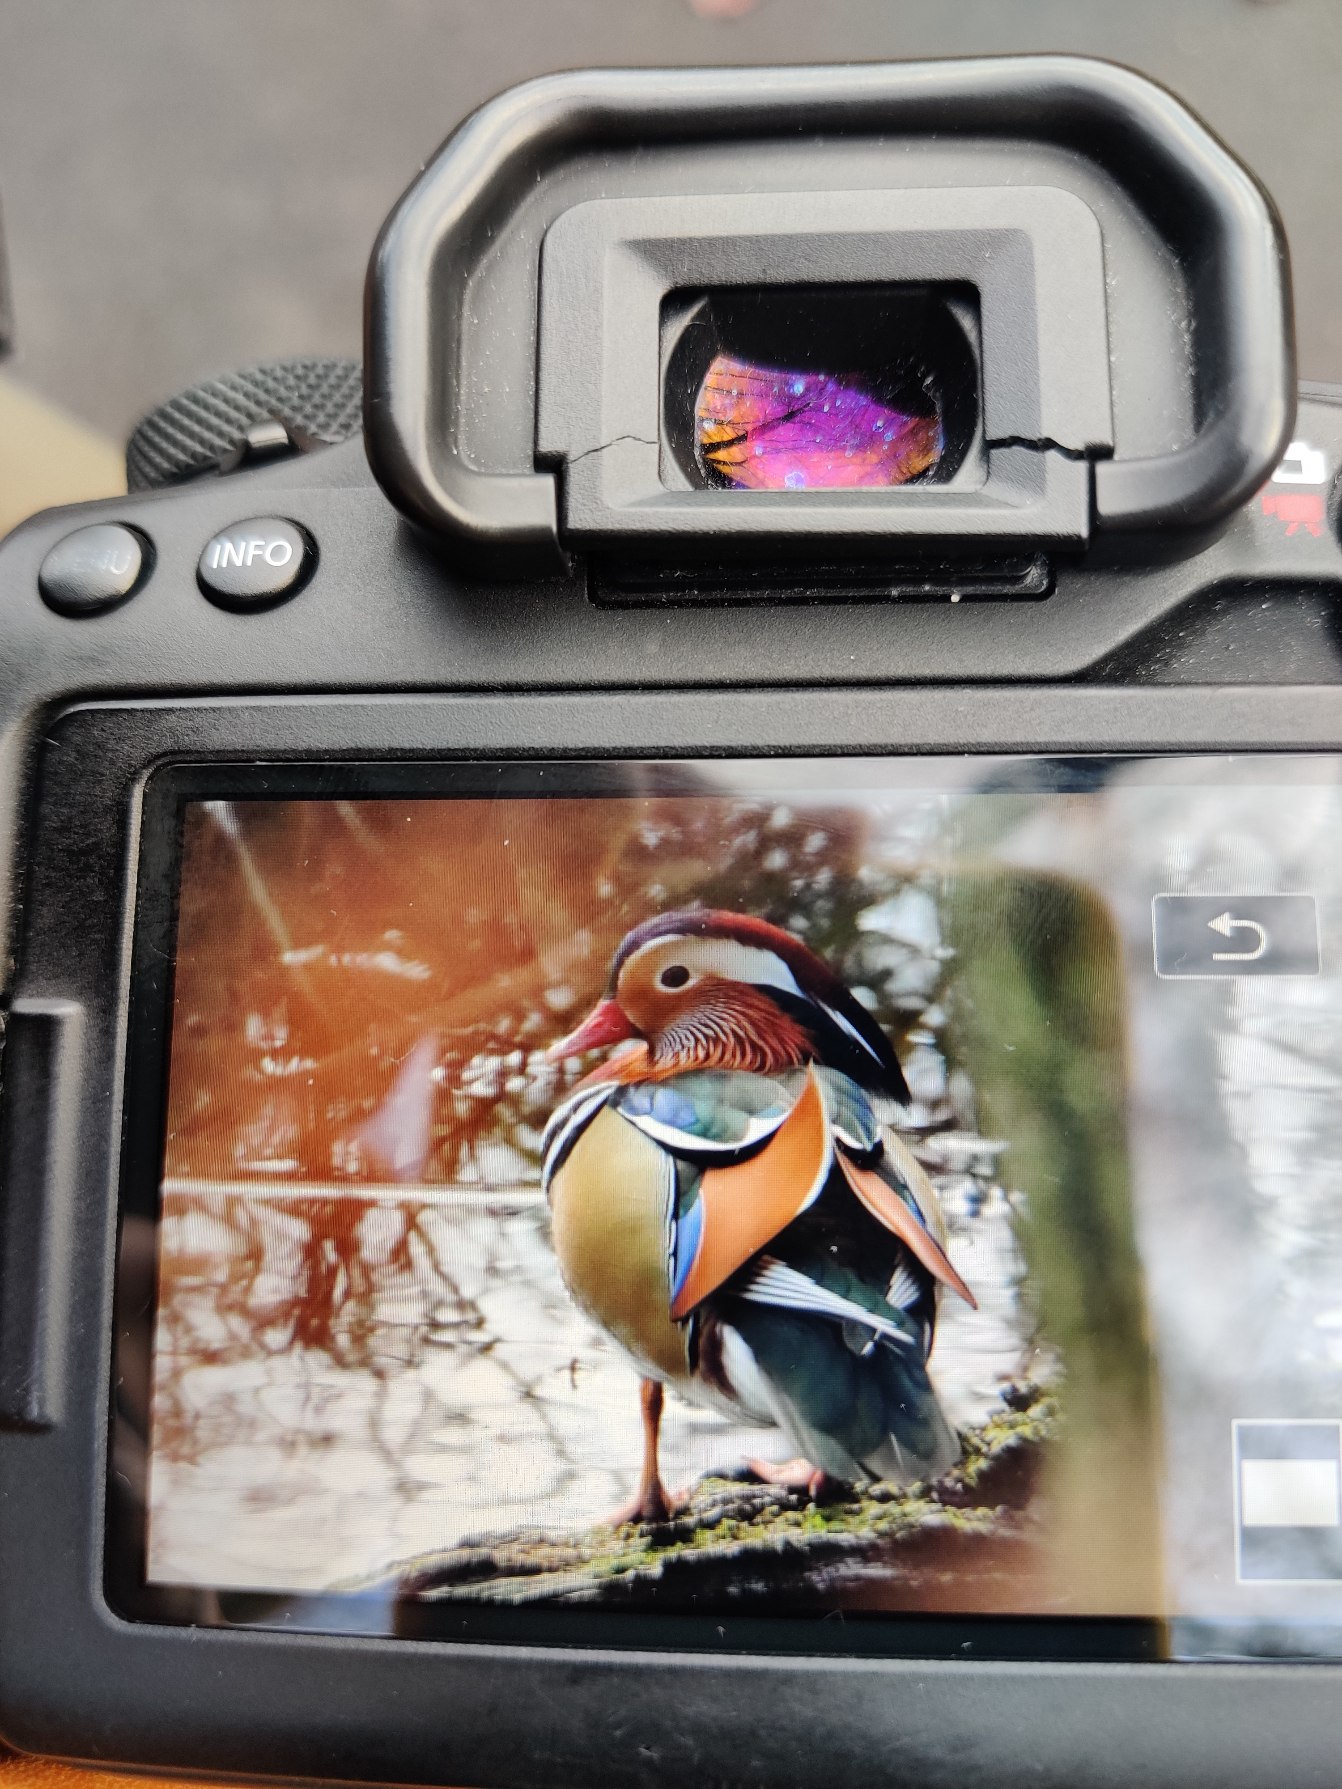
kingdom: Animalia
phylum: Chordata
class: Aves
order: Anseriformes
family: Anatidae
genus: Aix
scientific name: Aix galericulata
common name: Mandarinand
